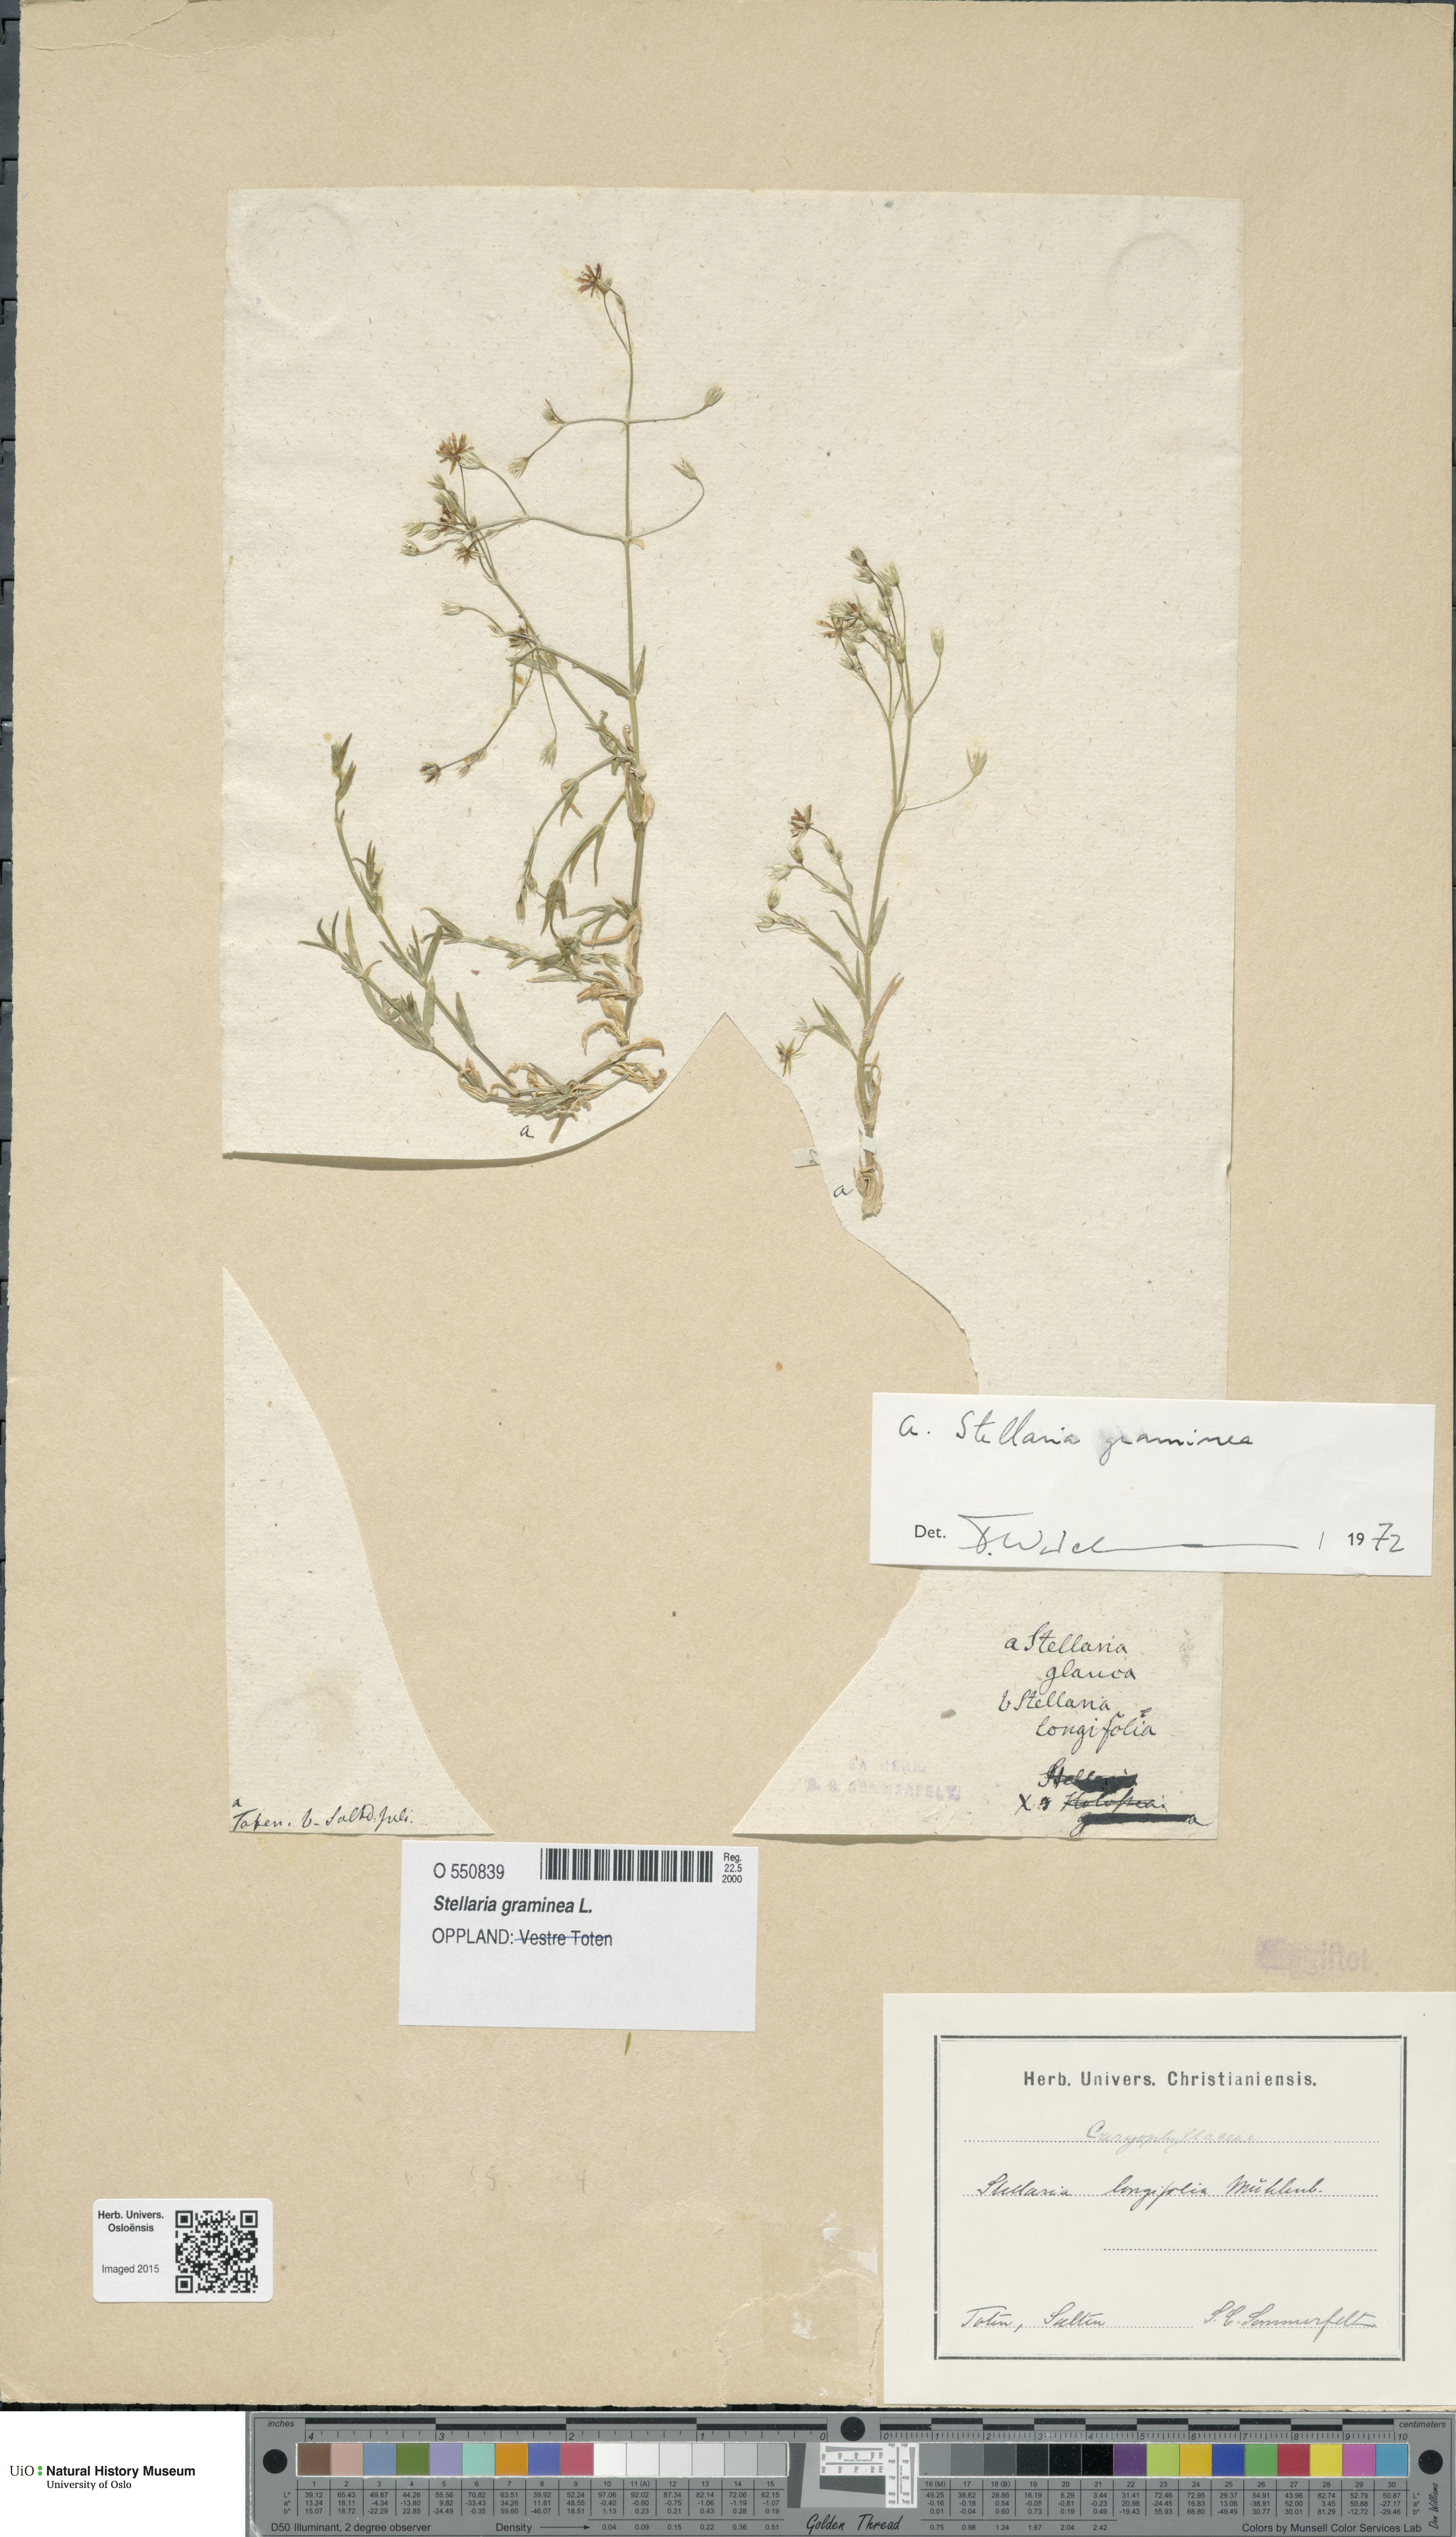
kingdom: Plantae
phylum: Tracheophyta
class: Magnoliopsida
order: Caryophyllales
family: Caryophyllaceae
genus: Stellaria
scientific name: Stellaria graminea
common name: Grass-like starwort
